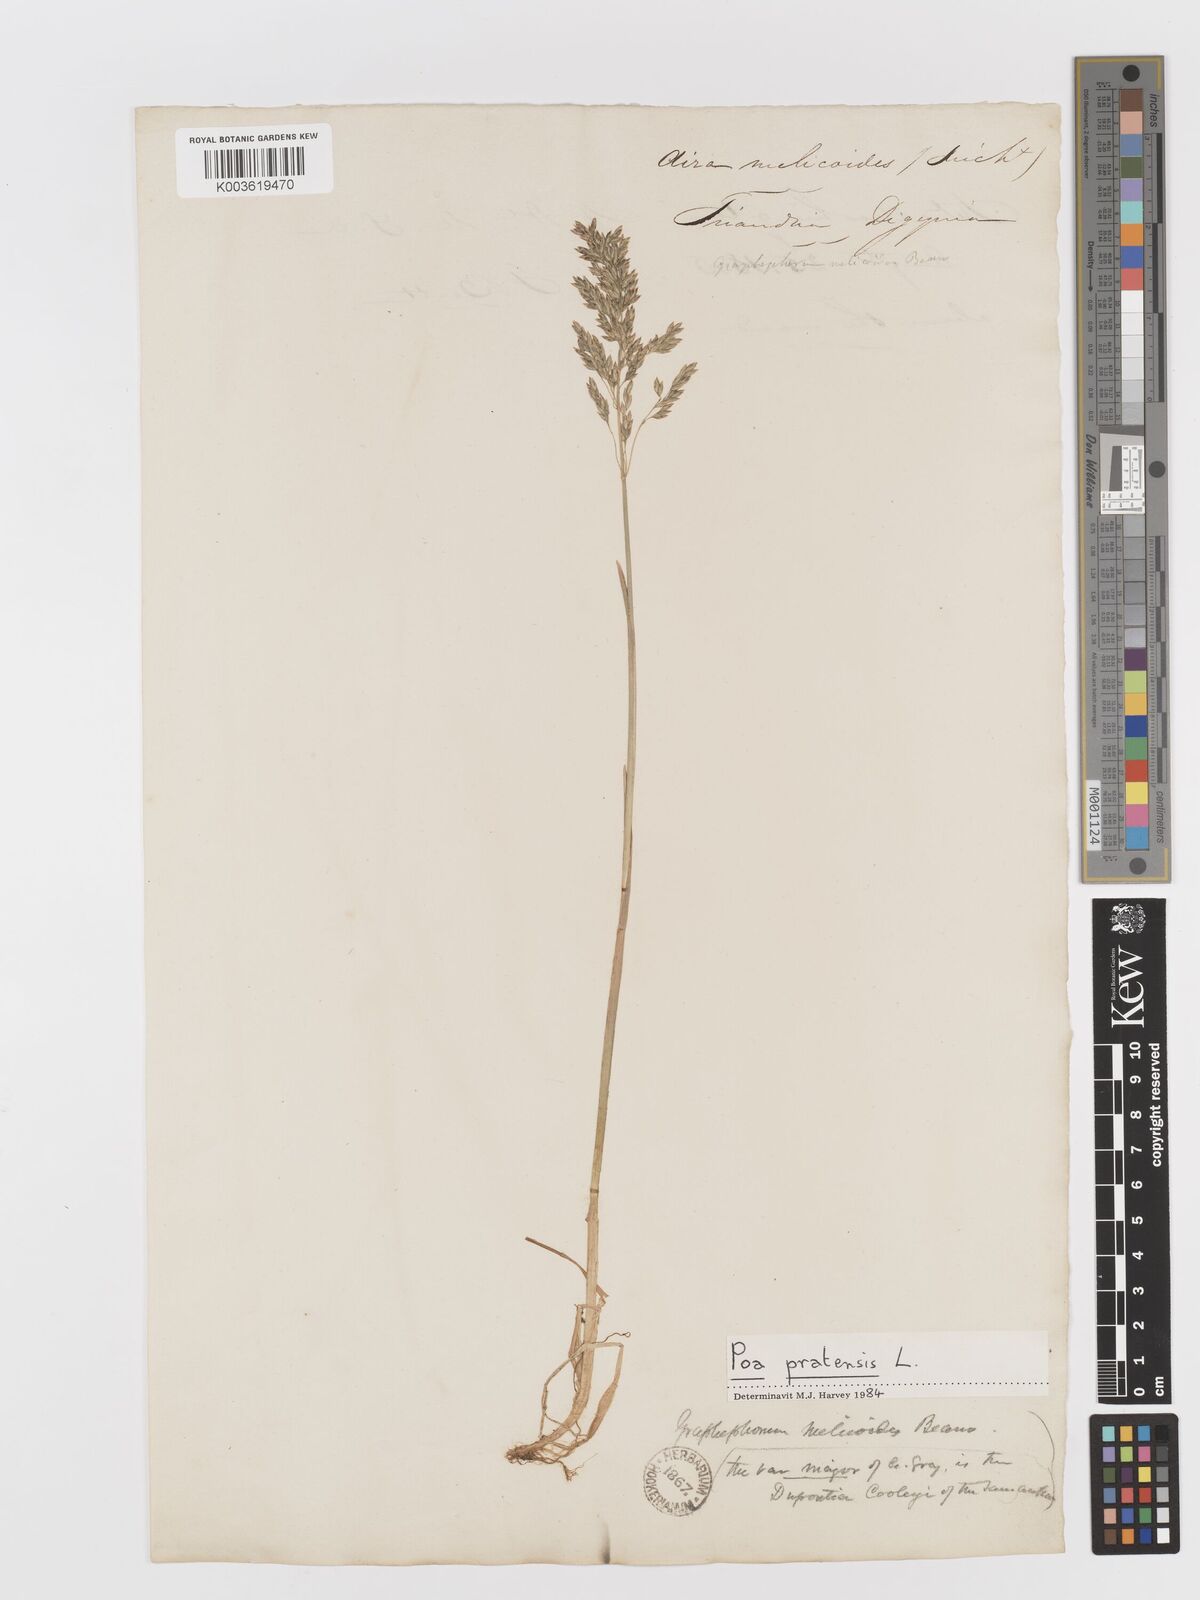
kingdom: Plantae
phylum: Tracheophyta
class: Liliopsida
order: Poales
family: Poaceae
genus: Graphephorum
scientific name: Graphephorum melicoides
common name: False melic
